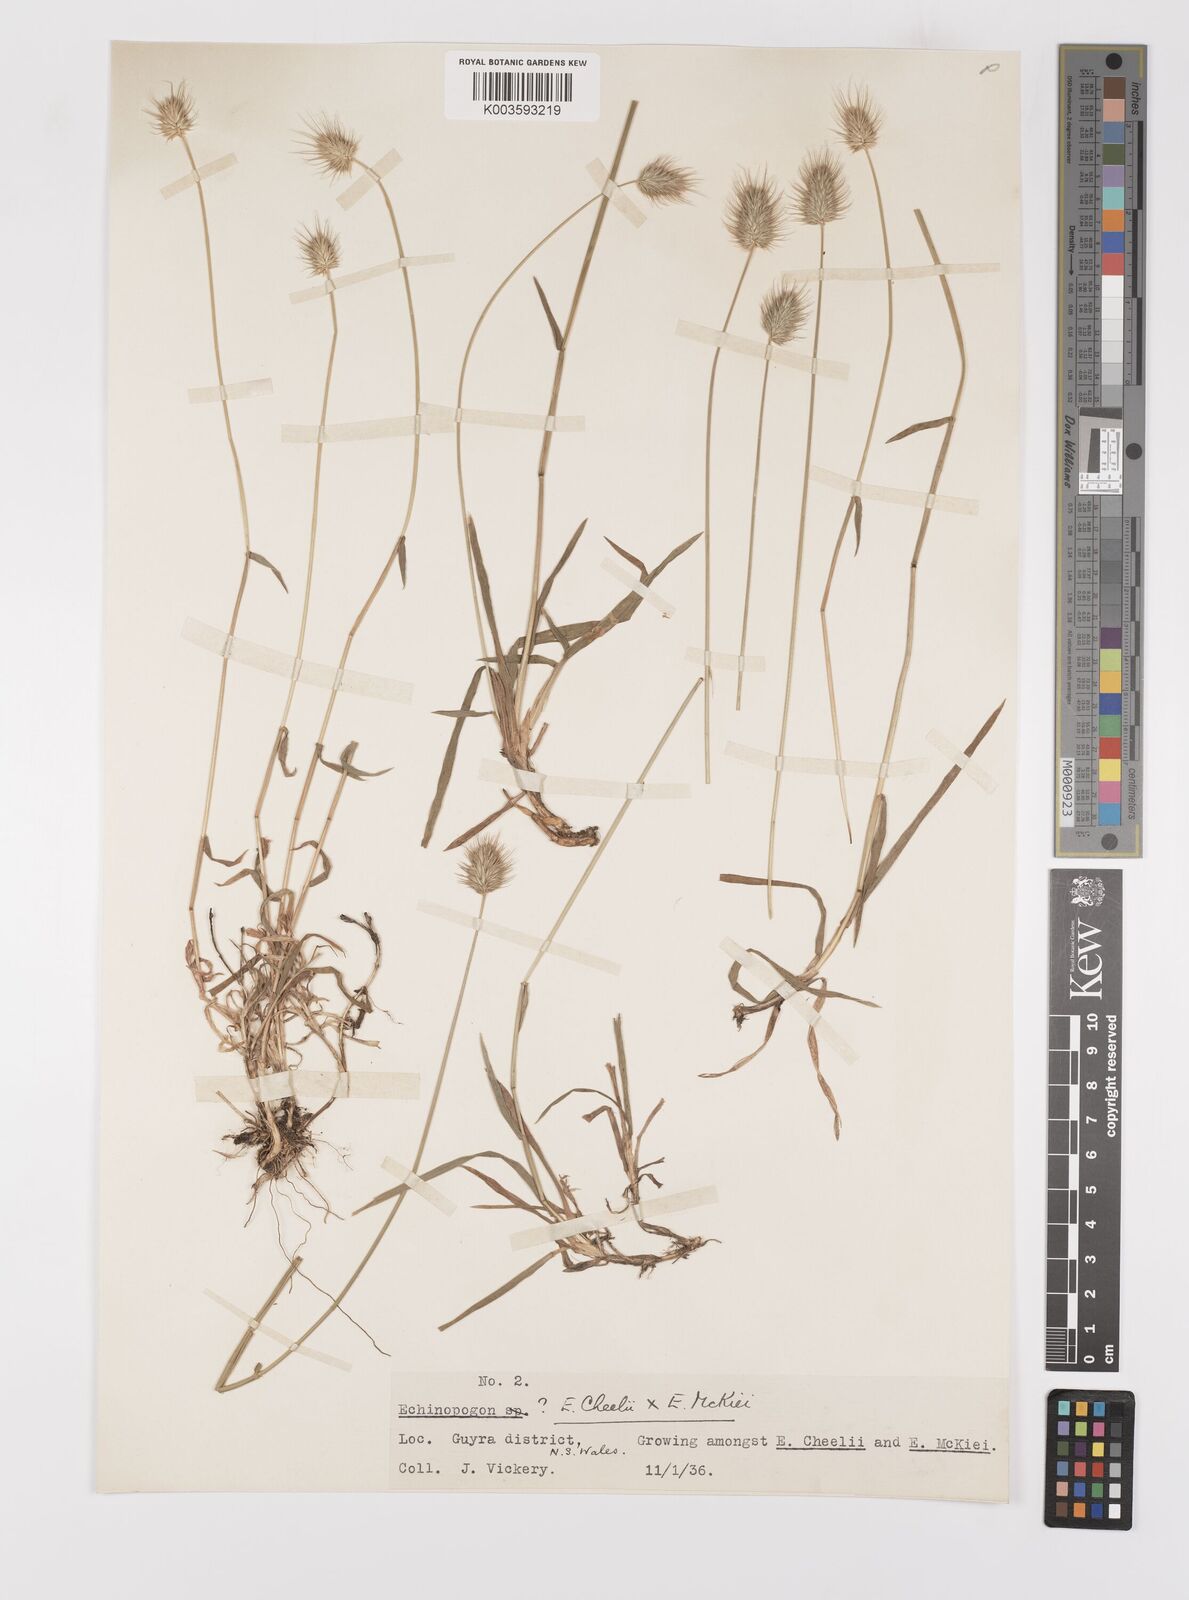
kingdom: Plantae
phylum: Tracheophyta
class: Liliopsida
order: Poales
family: Poaceae
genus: Echinopogon
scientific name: Echinopogon mckiei
